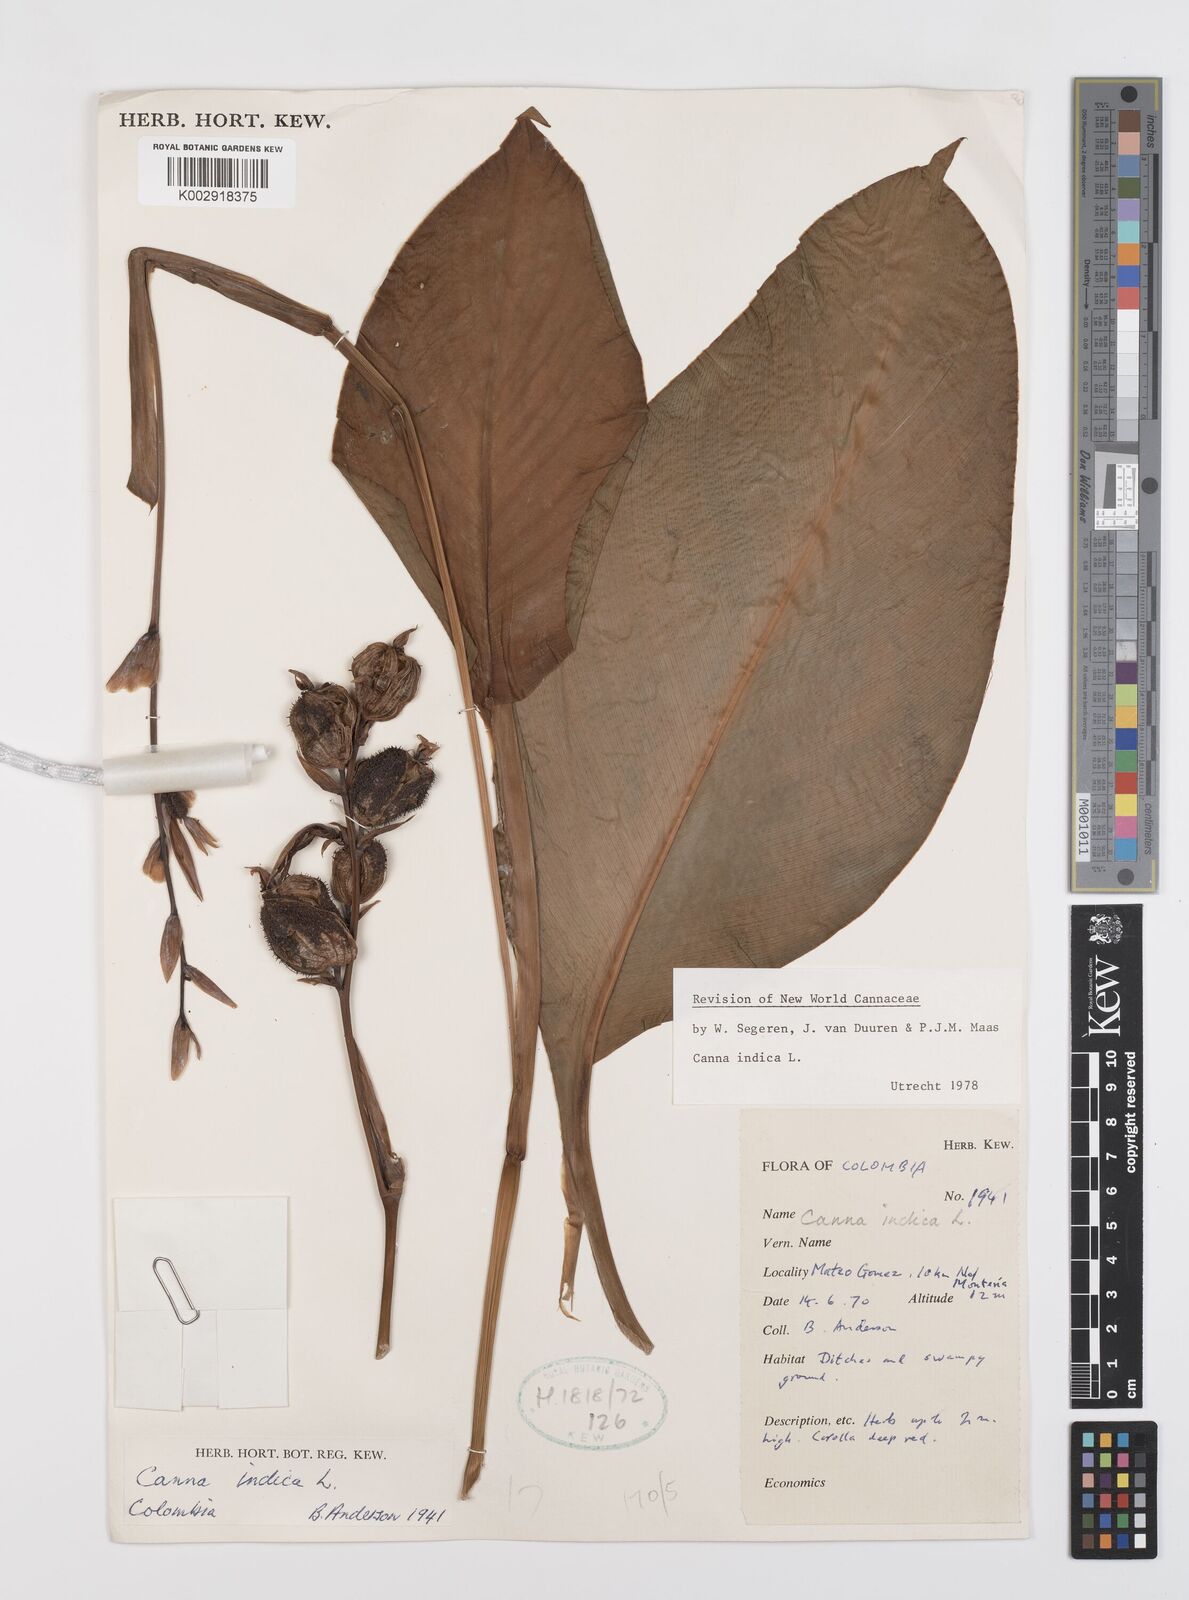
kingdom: Plantae
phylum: Tracheophyta
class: Liliopsida
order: Zingiberales
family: Cannaceae
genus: Canna
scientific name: Canna indica
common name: Indian shot
